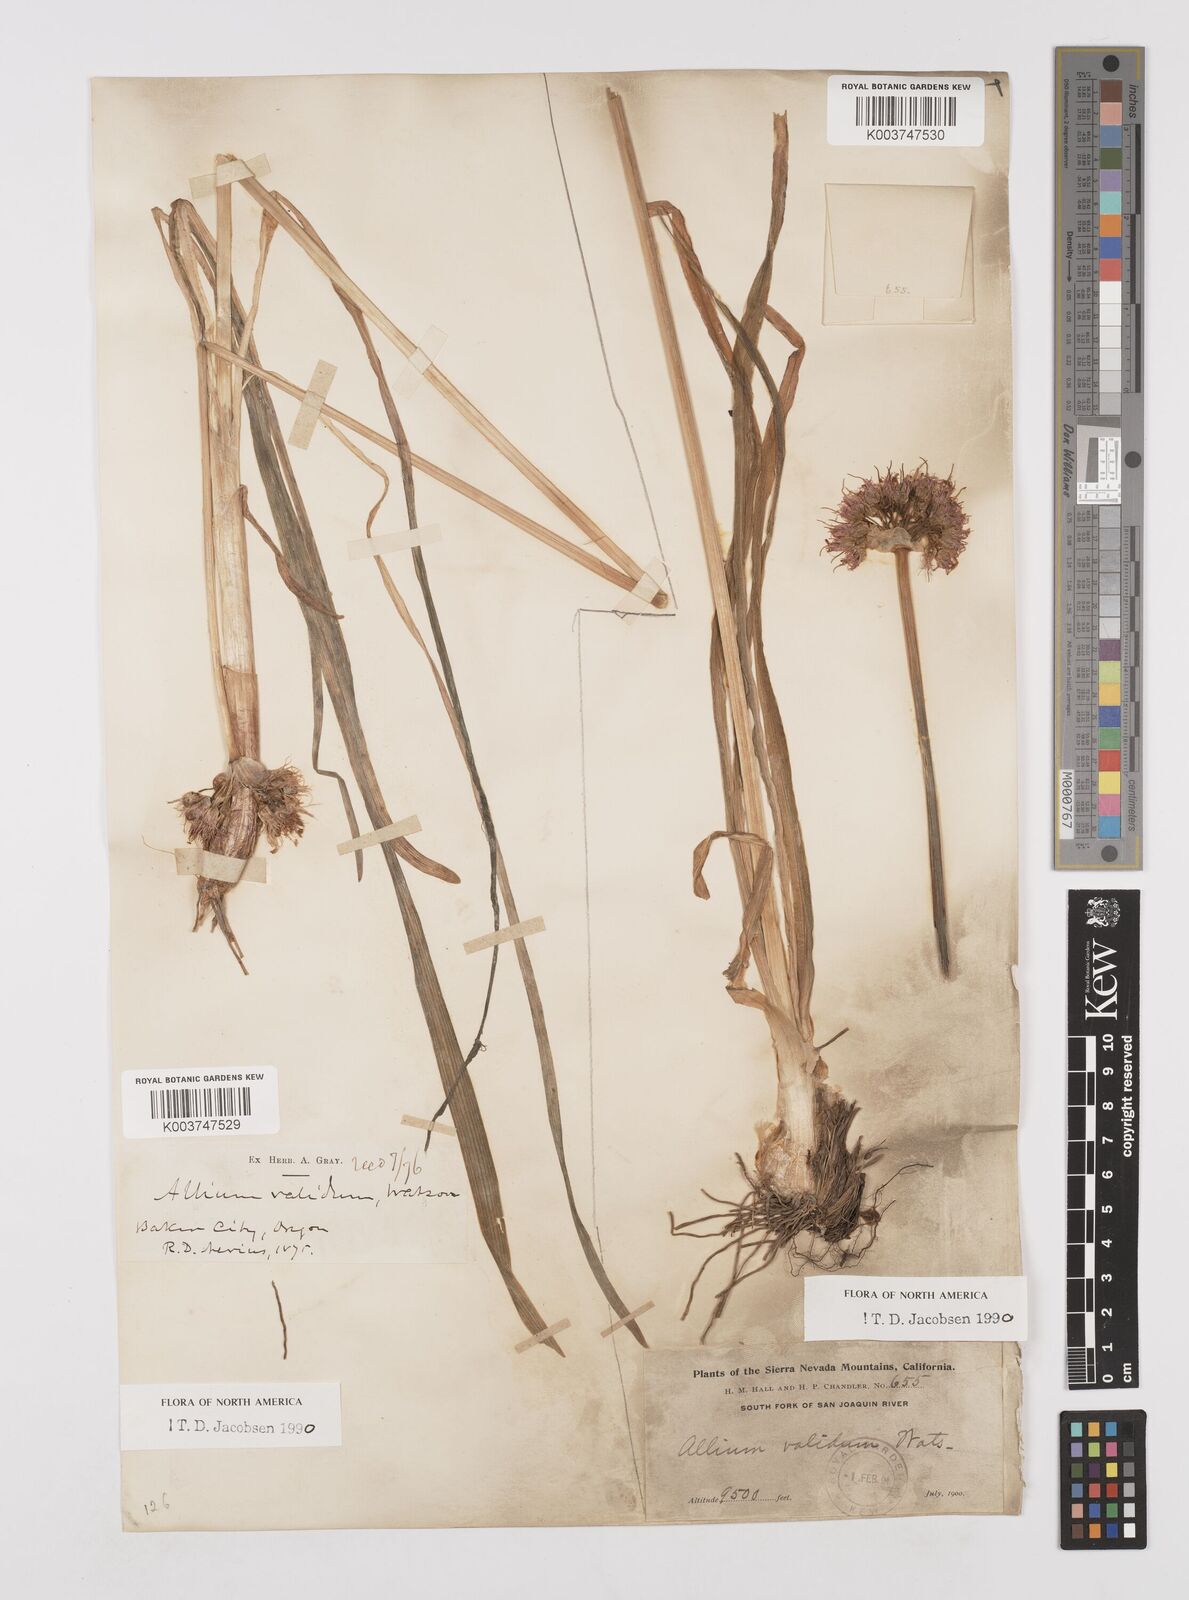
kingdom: Plantae
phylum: Tracheophyta
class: Liliopsida
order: Asparagales
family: Amaryllidaceae
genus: Allium
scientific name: Allium validum
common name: Pacific mountain onion
